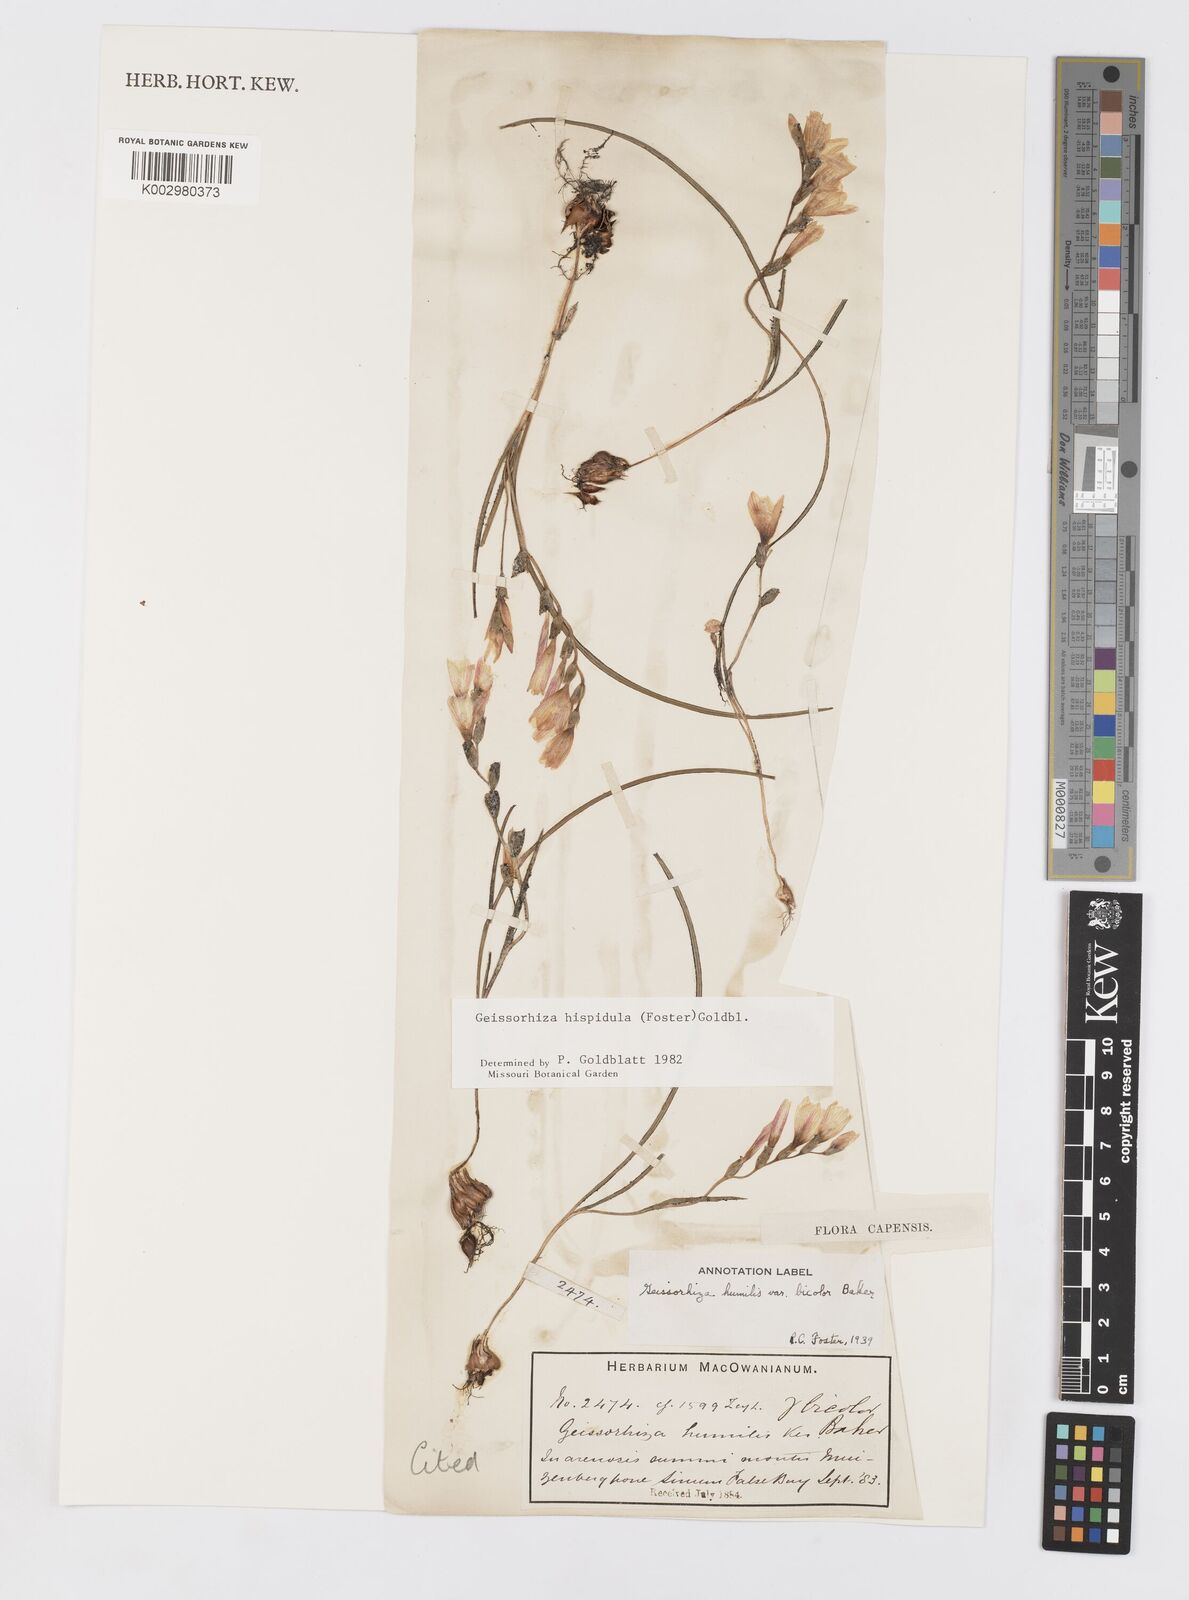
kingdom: Plantae
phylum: Tracheophyta
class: Liliopsida
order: Asparagales
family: Iridaceae
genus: Geissorhiza
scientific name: Geissorhiza hispidula
